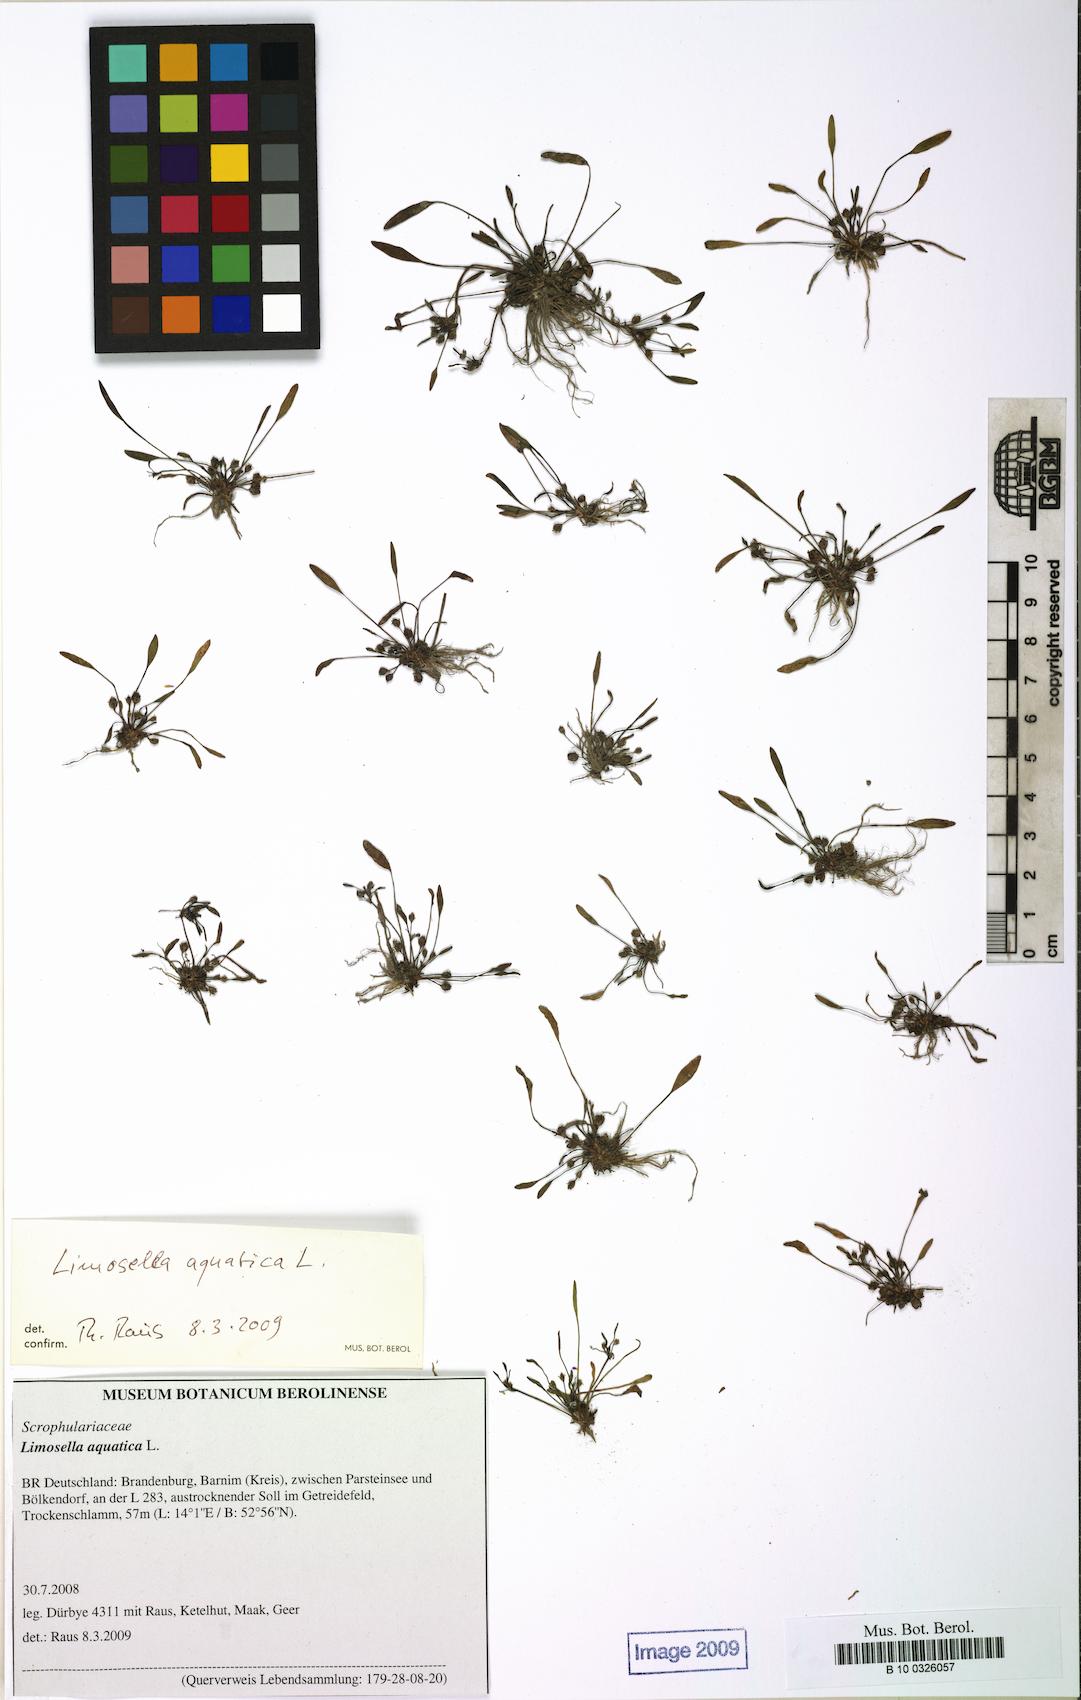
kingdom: Plantae
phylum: Tracheophyta
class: Magnoliopsida
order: Lamiales
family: Scrophulariaceae
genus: Limosella
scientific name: Limosella aquatica
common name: Mudwort
